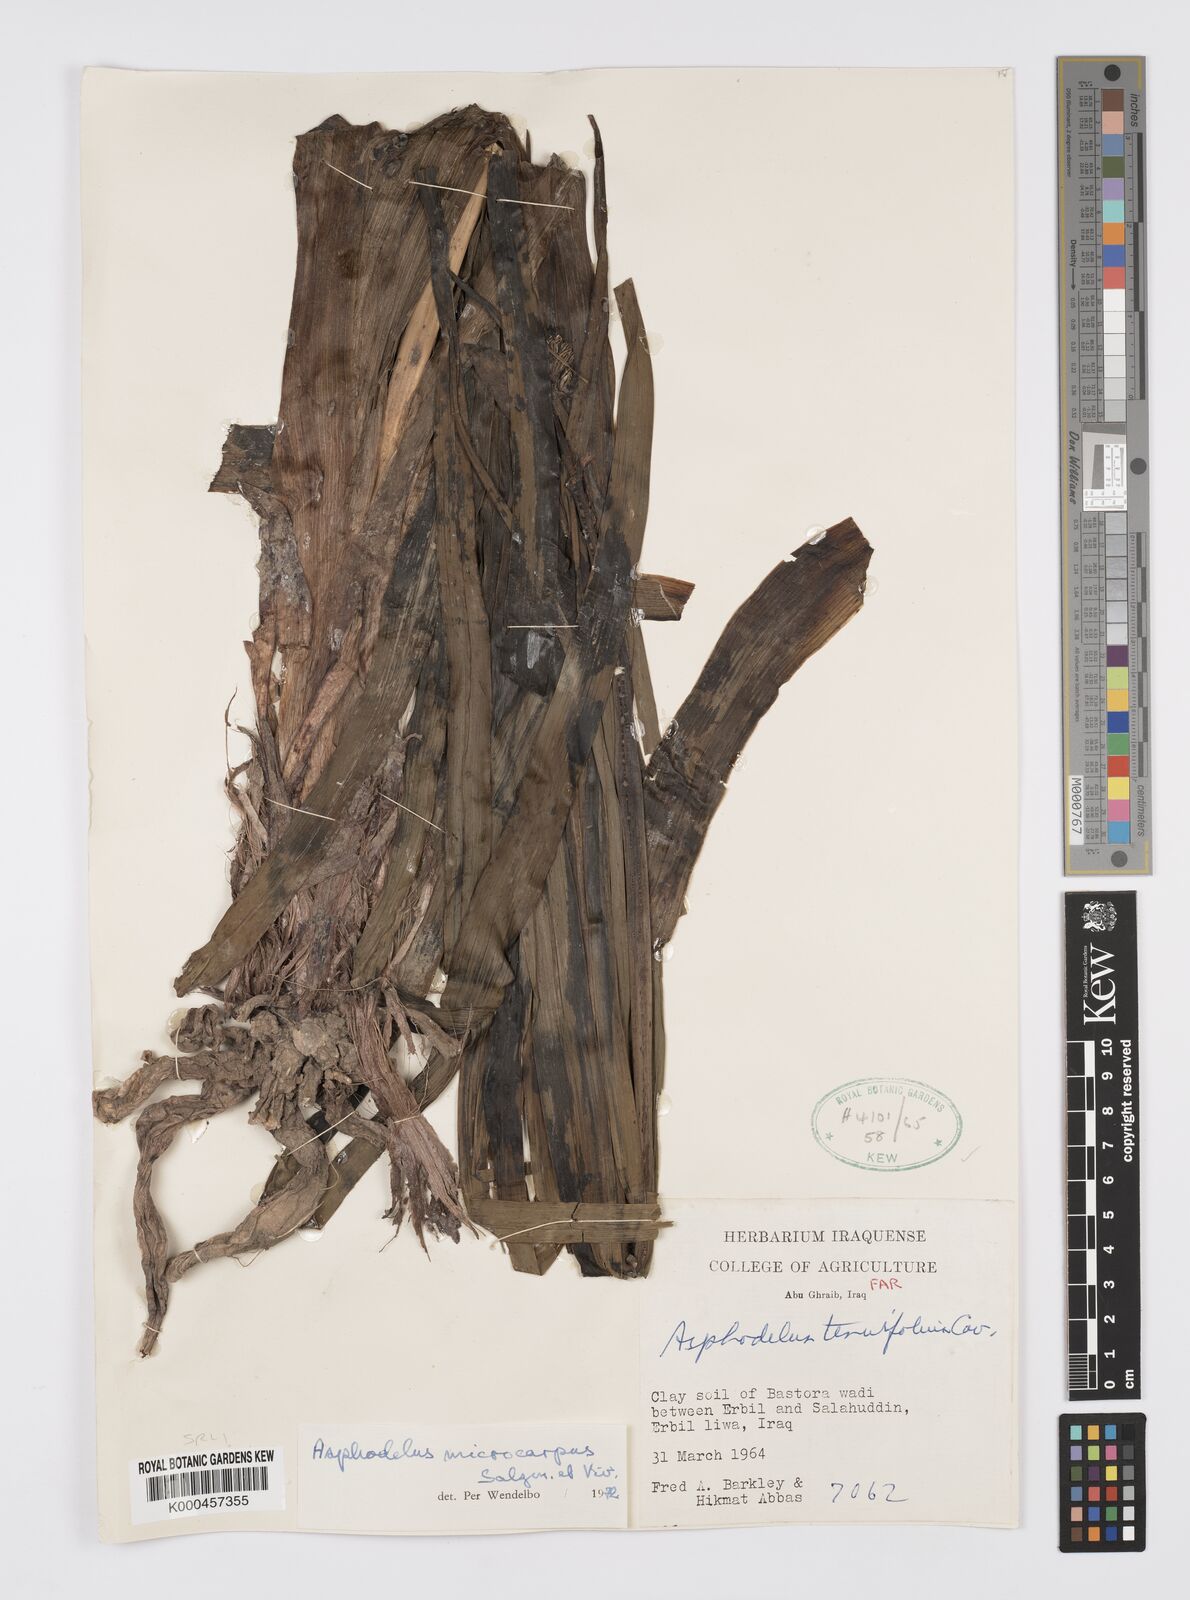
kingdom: Plantae
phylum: Tracheophyta
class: Liliopsida
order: Asparagales
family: Asphodelaceae
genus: Asphodelus
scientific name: Asphodelus aestivus
